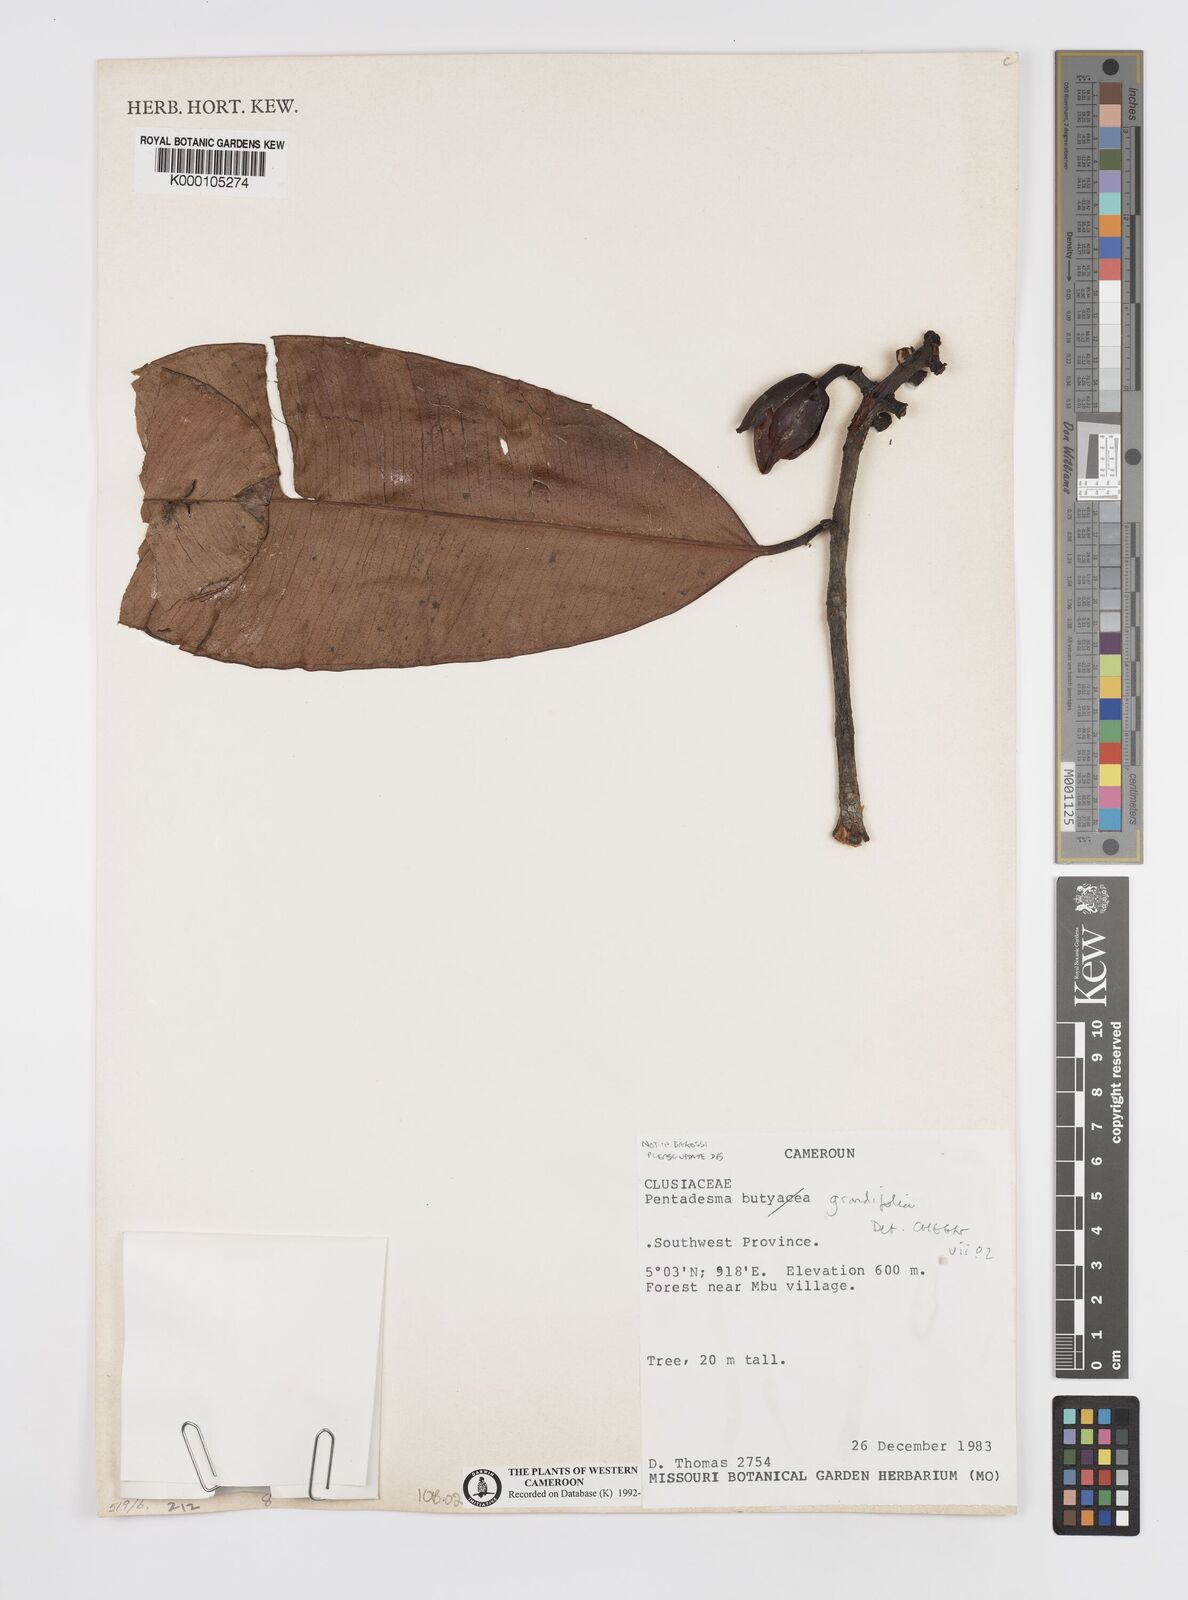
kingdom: Plantae
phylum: Tracheophyta
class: Magnoliopsida
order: Malpighiales
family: Clusiaceae
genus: Pentadesma
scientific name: Pentadesma grandifolia
